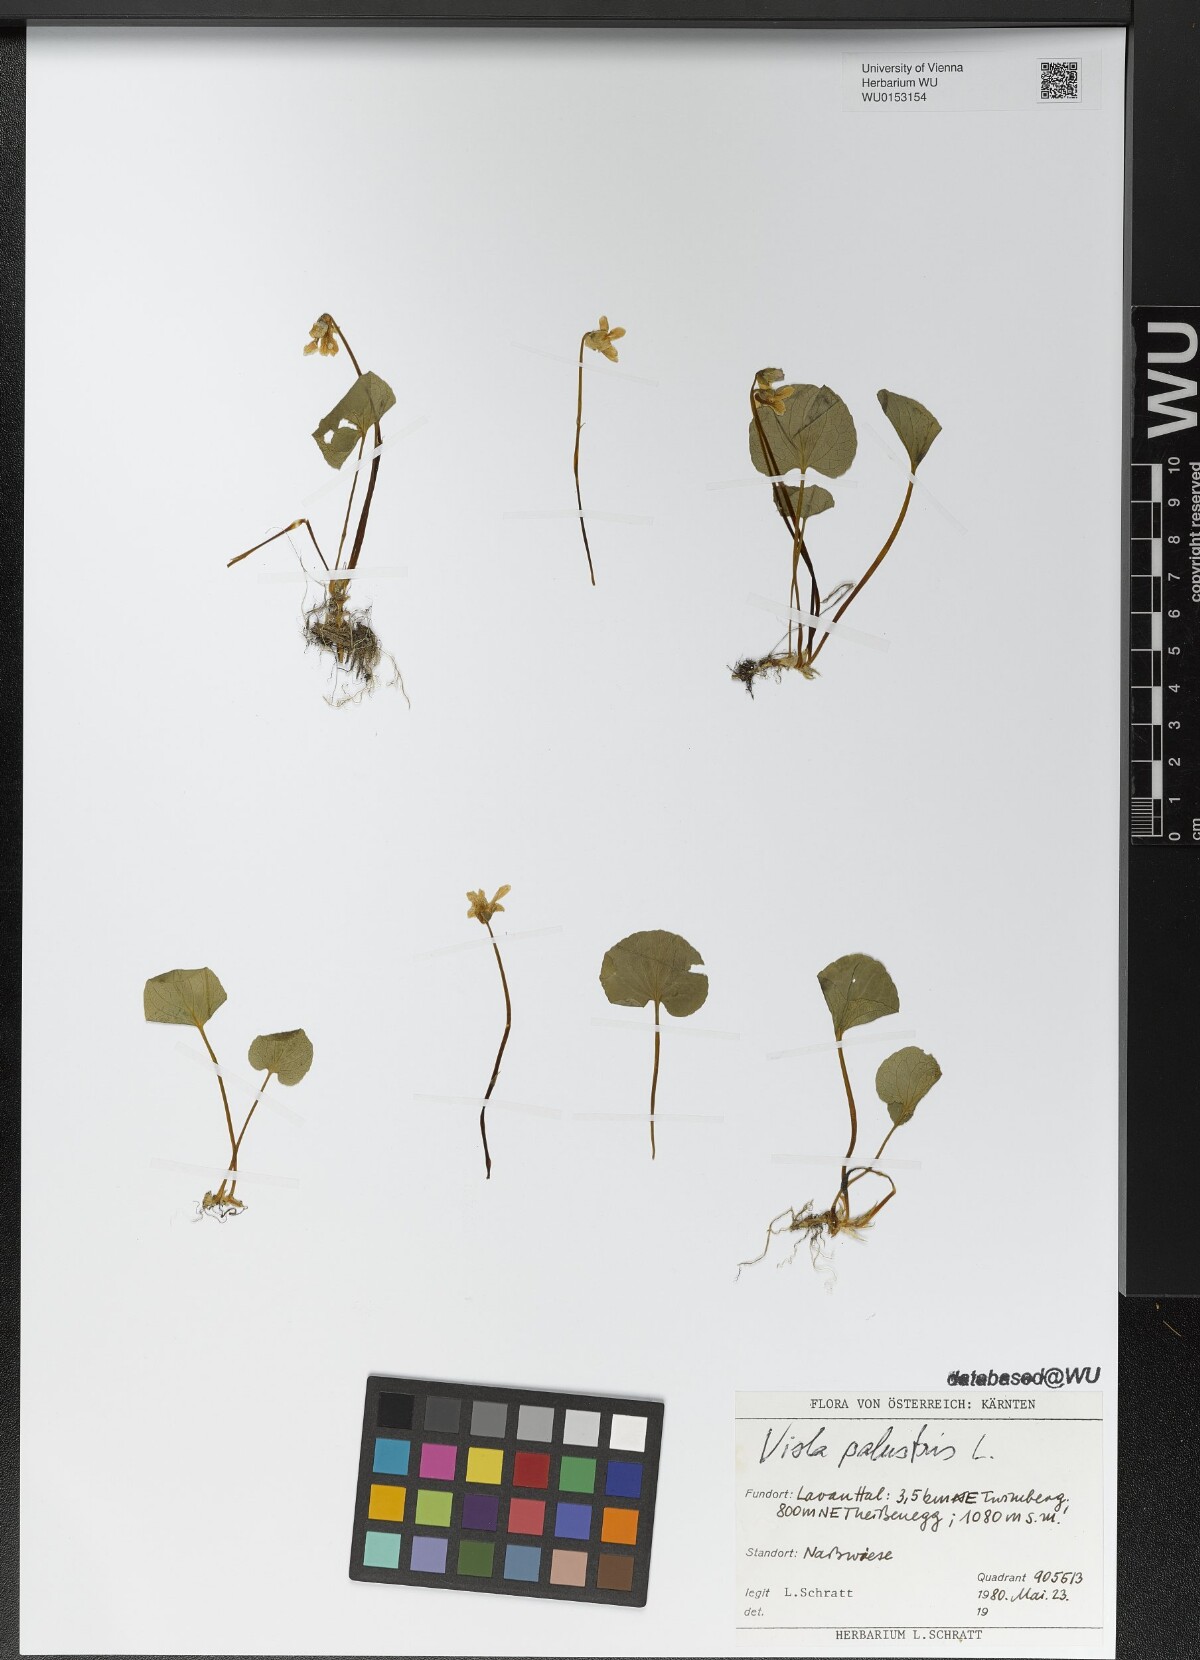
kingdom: Plantae
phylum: Tracheophyta
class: Magnoliopsida
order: Malpighiales
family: Violaceae
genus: Viola
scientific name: Viola palustris
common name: Marsh violet
